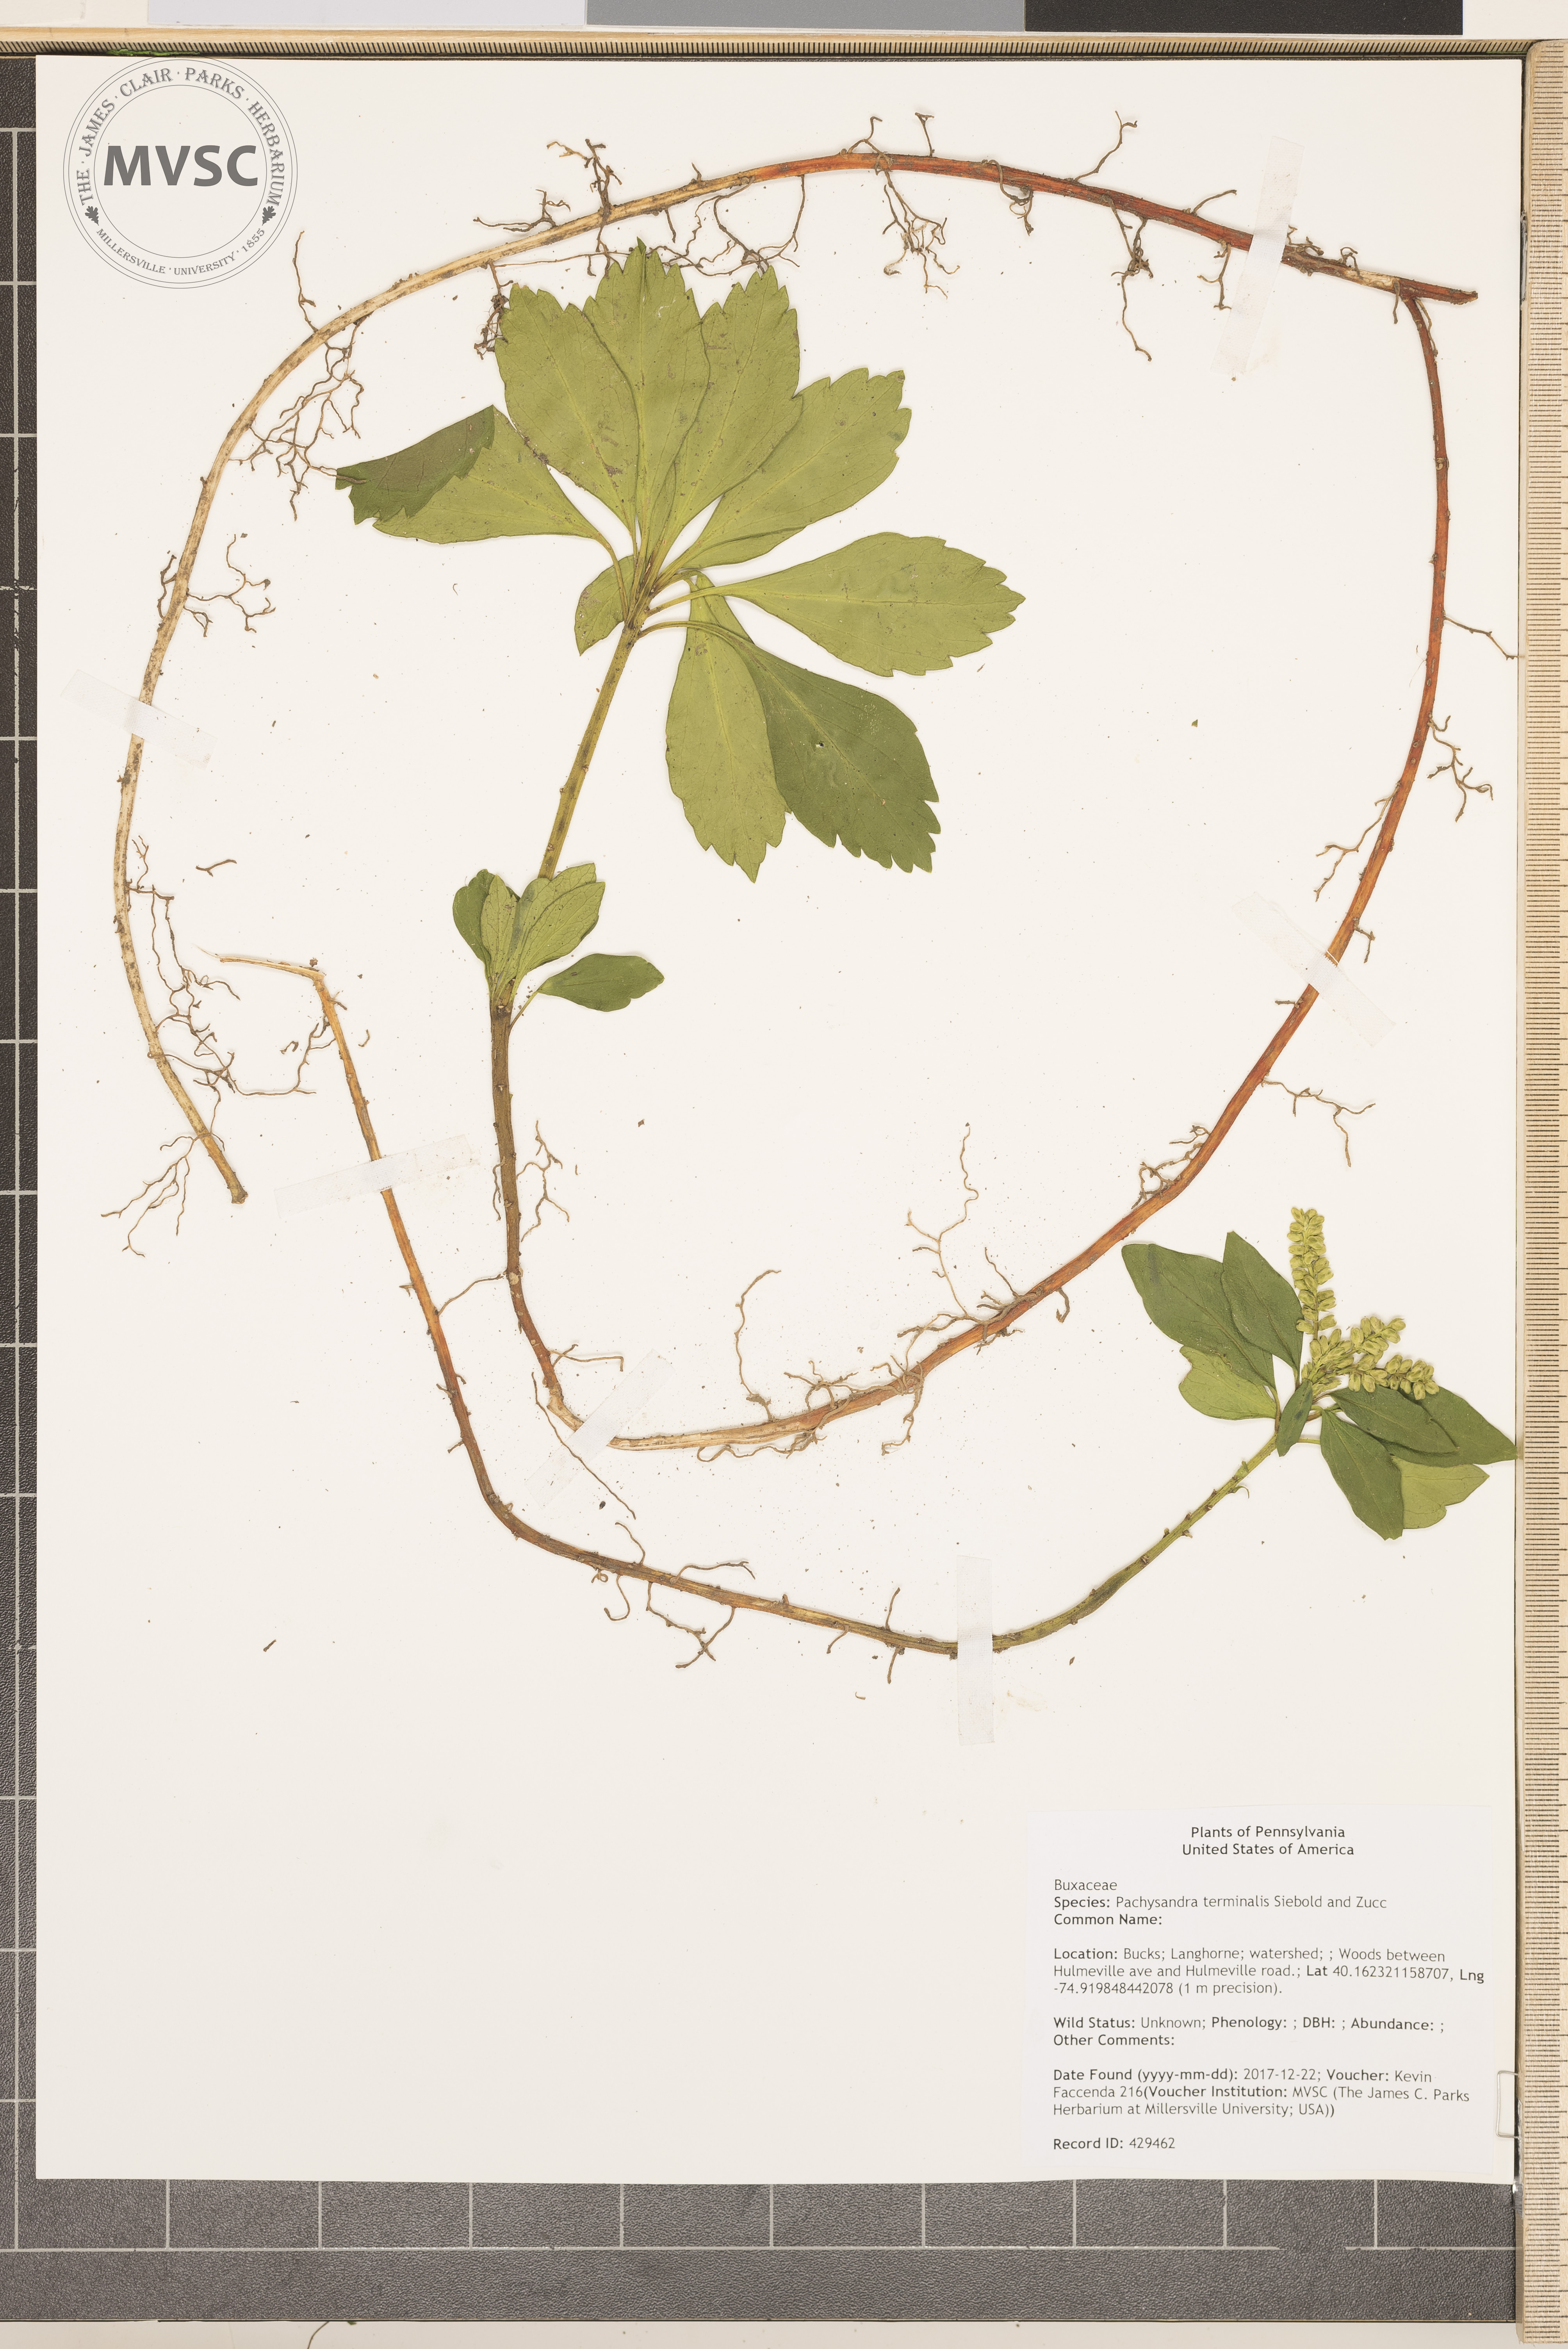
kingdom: Plantae
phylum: Tracheophyta
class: Magnoliopsida
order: Buxales
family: Buxaceae
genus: Pachysandra
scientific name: Pachysandra terminalis
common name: Japanese pachysandra
